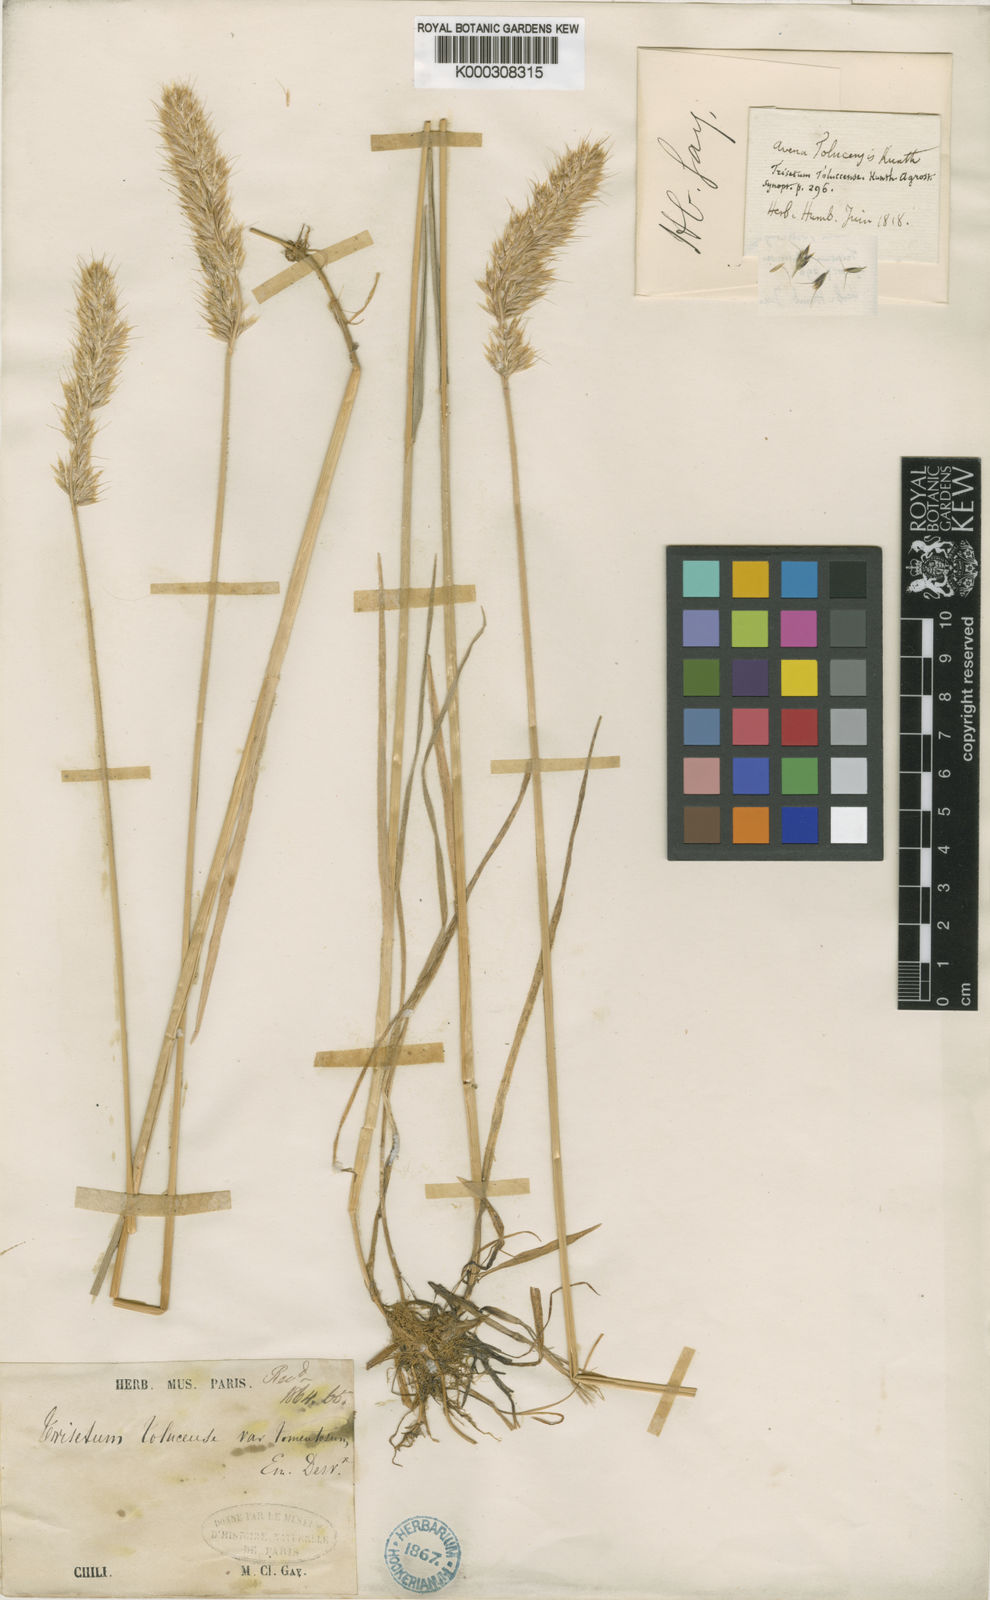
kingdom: Plantae
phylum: Tracheophyta
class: Liliopsida
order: Poales
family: Poaceae
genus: Koeleria
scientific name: Koeleria spicata
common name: Mountain trisetum
